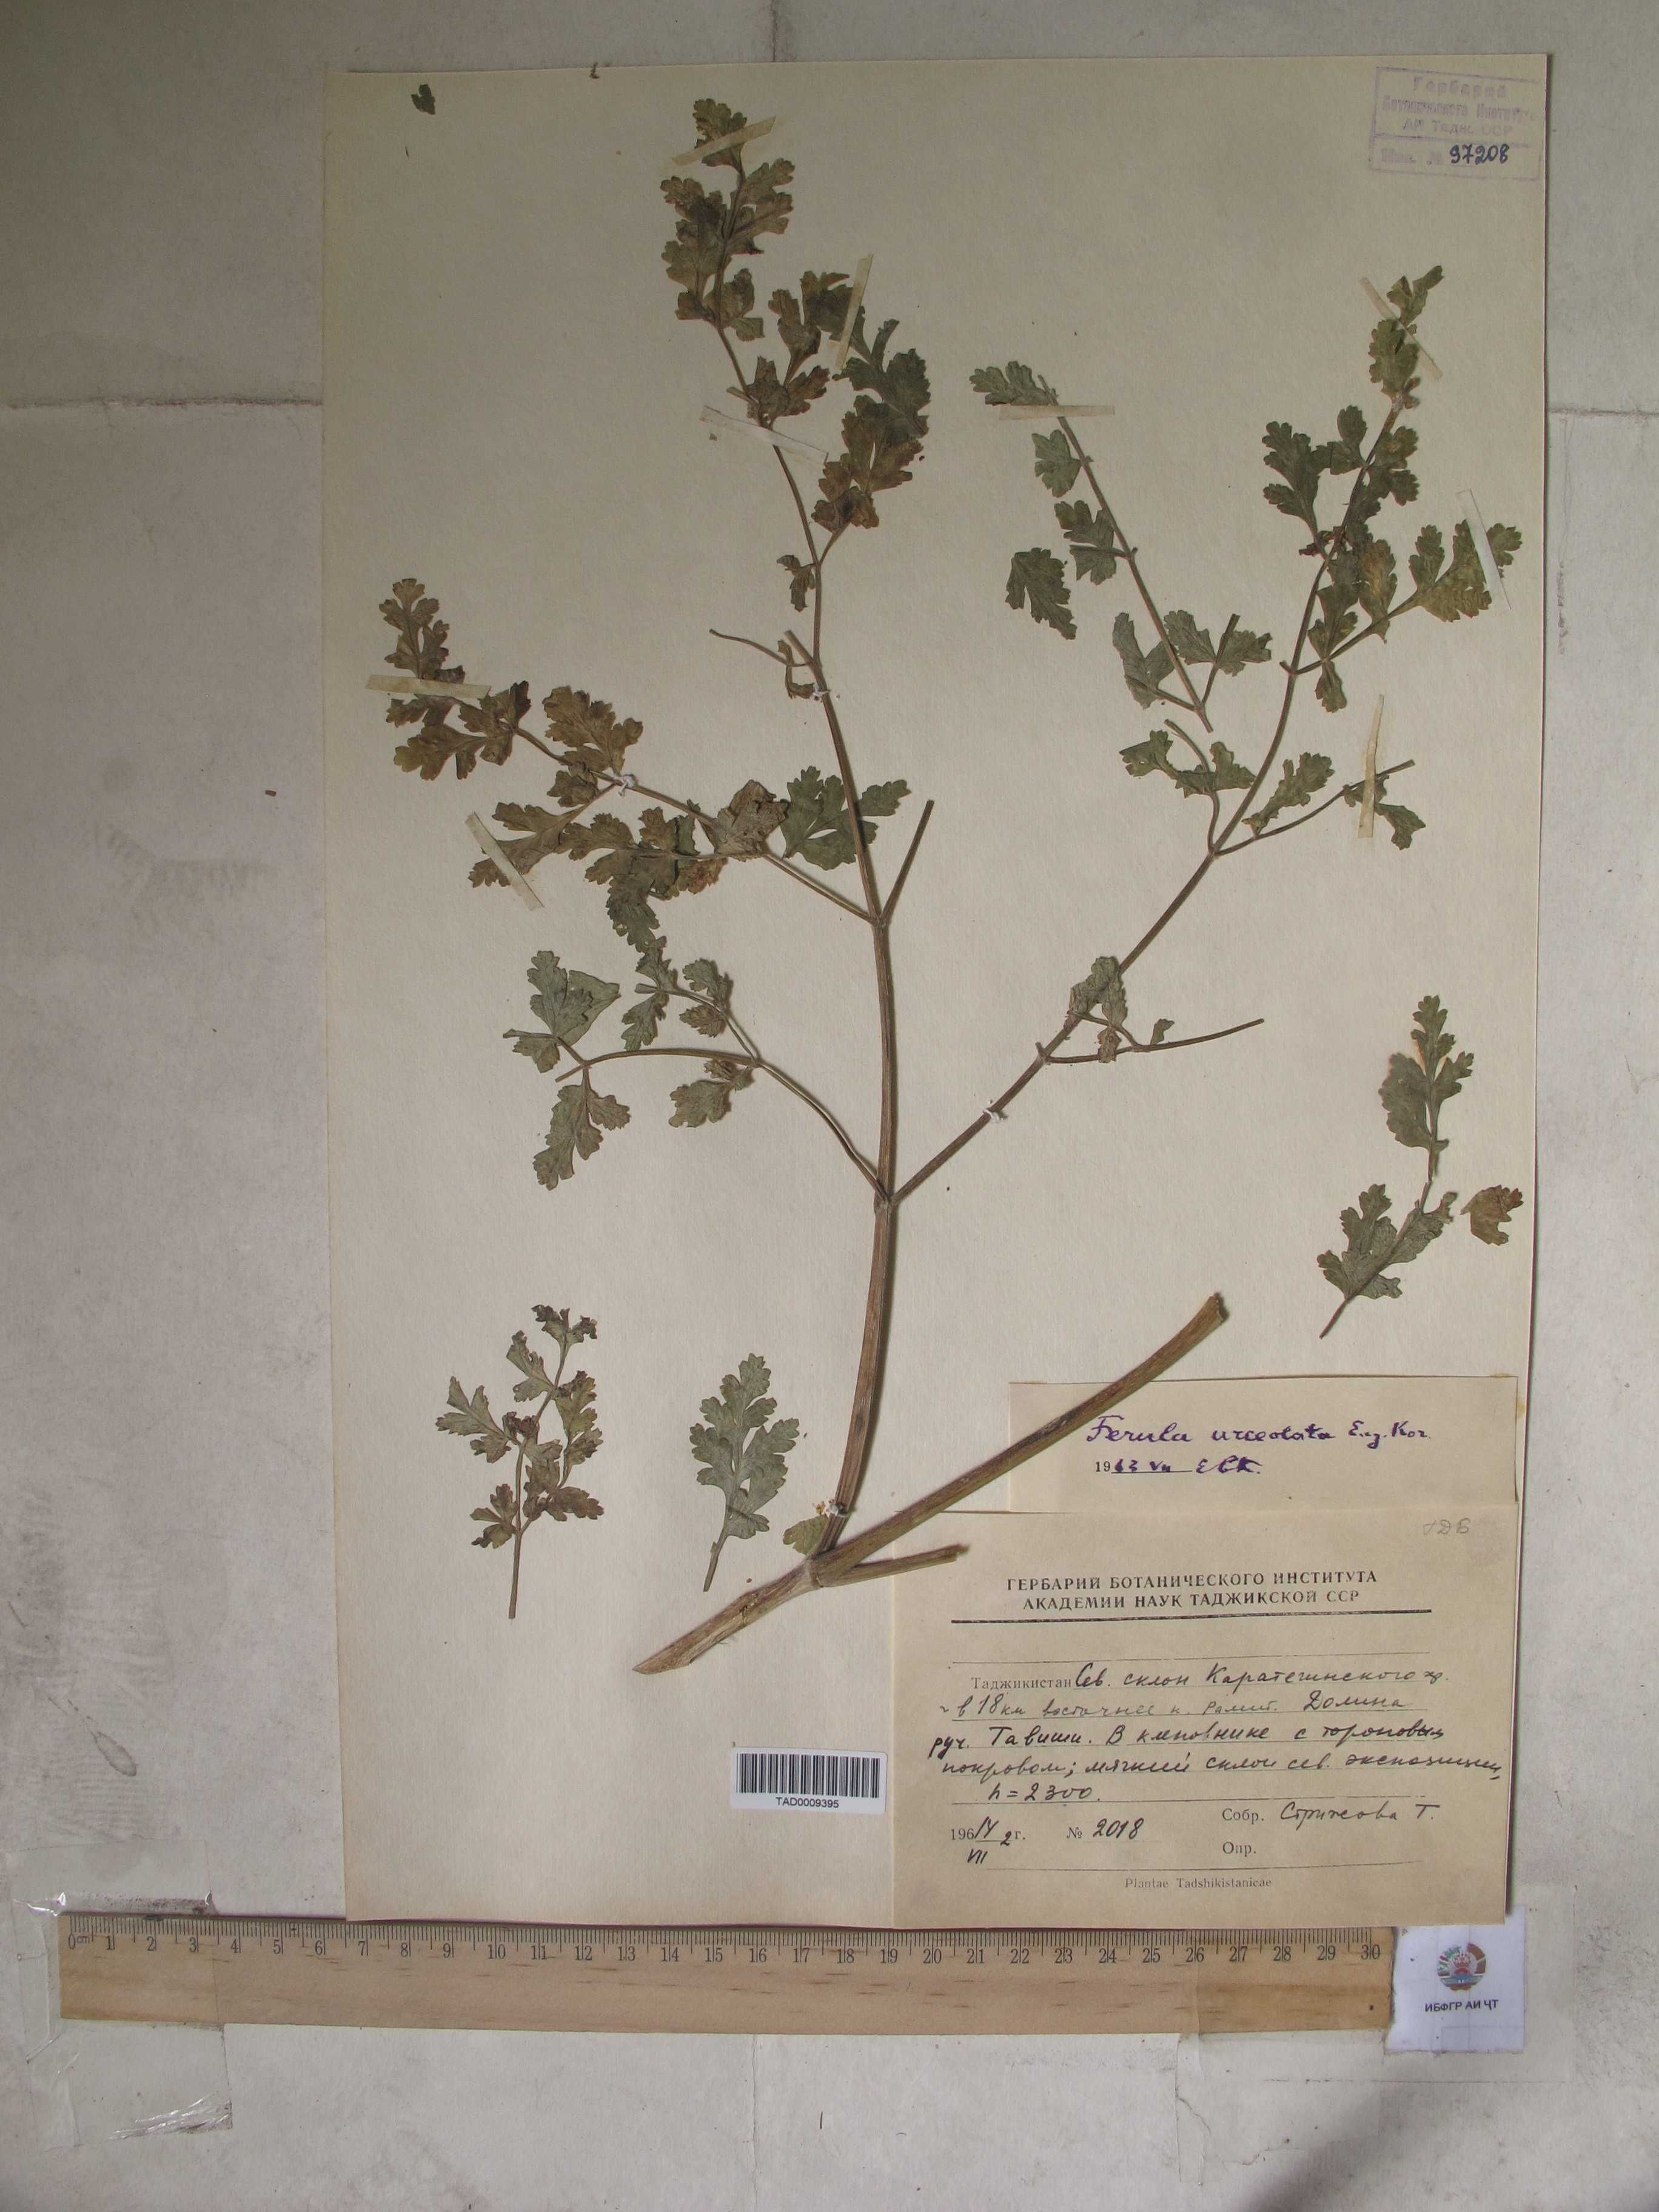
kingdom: Plantae
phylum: Tracheophyta
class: Magnoliopsida
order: Apiales
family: Apiaceae
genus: Ferula
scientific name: Ferula moschata
